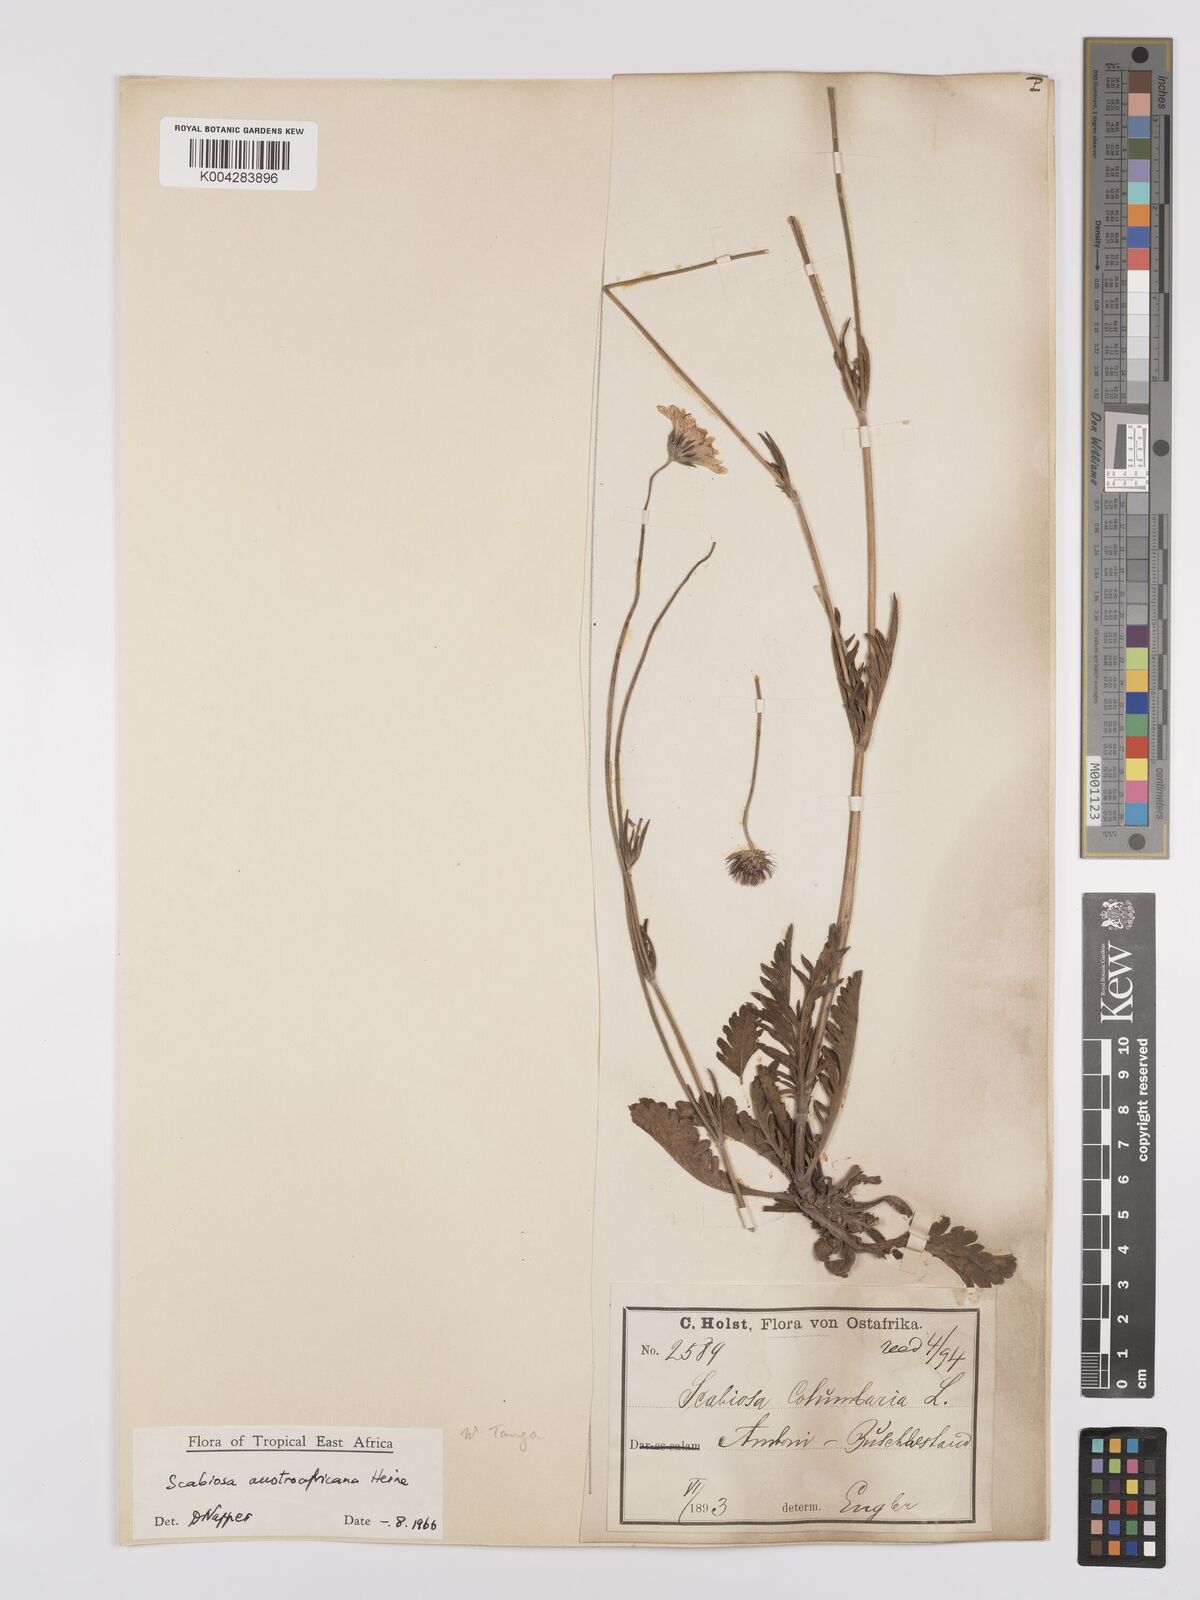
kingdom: Plantae
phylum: Tracheophyta
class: Magnoliopsida
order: Dipsacales
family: Caprifoliaceae
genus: Scabiosa
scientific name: Scabiosa austroafricana
